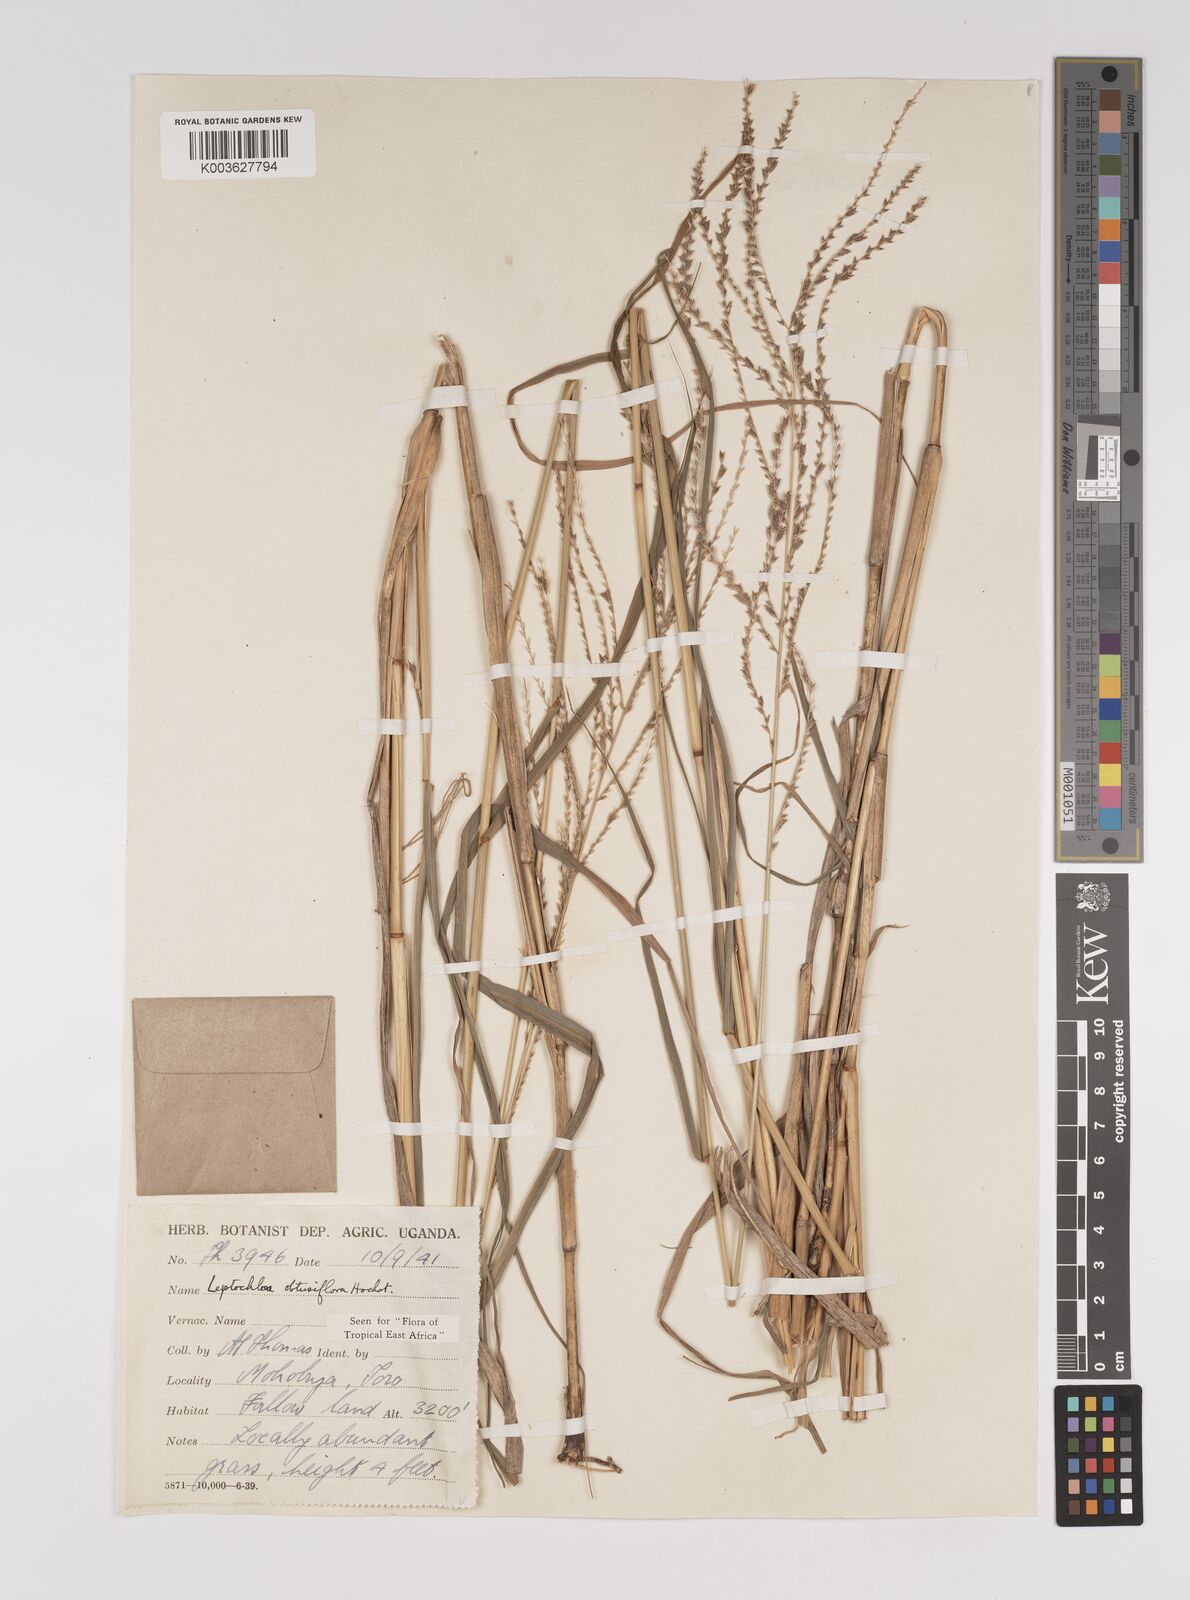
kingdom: Plantae
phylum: Tracheophyta
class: Liliopsida
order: Poales
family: Poaceae
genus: Disakisperma
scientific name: Disakisperma obtusiflorum
